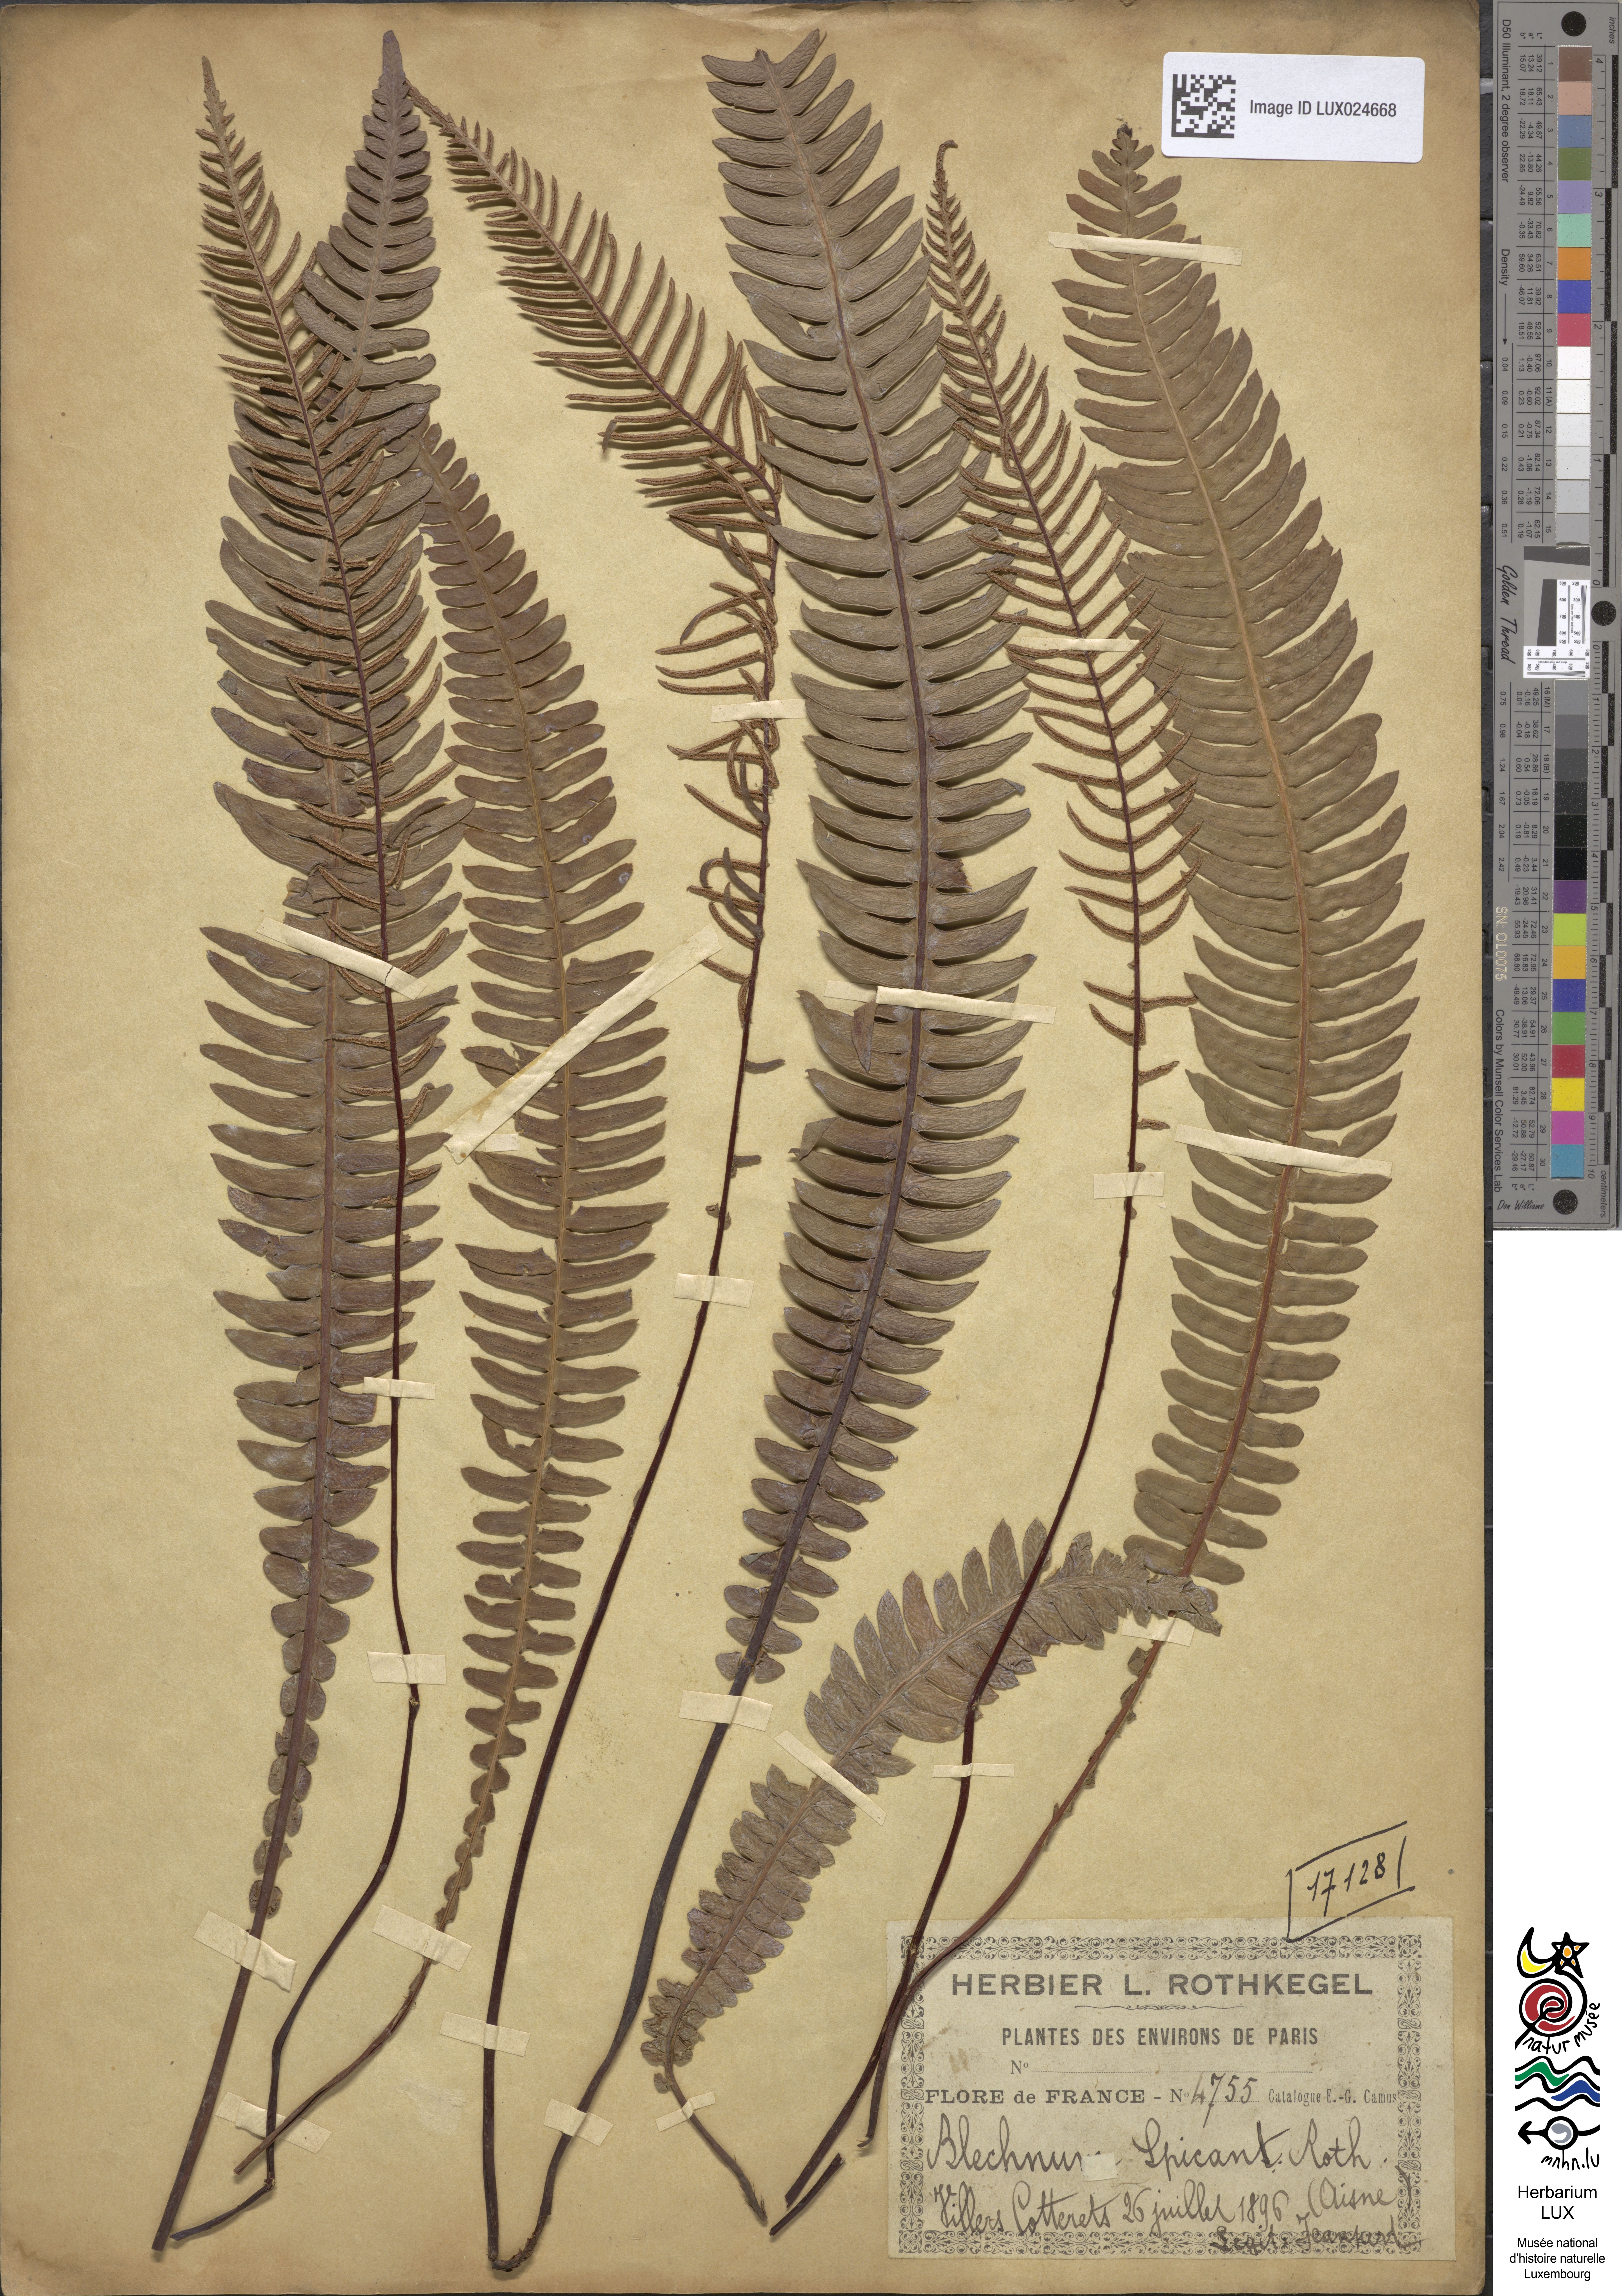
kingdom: Plantae
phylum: Tracheophyta
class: Polypodiopsida
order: Polypodiales
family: Blechnaceae
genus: Struthiopteris
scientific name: Struthiopteris spicant
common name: Deer fern
